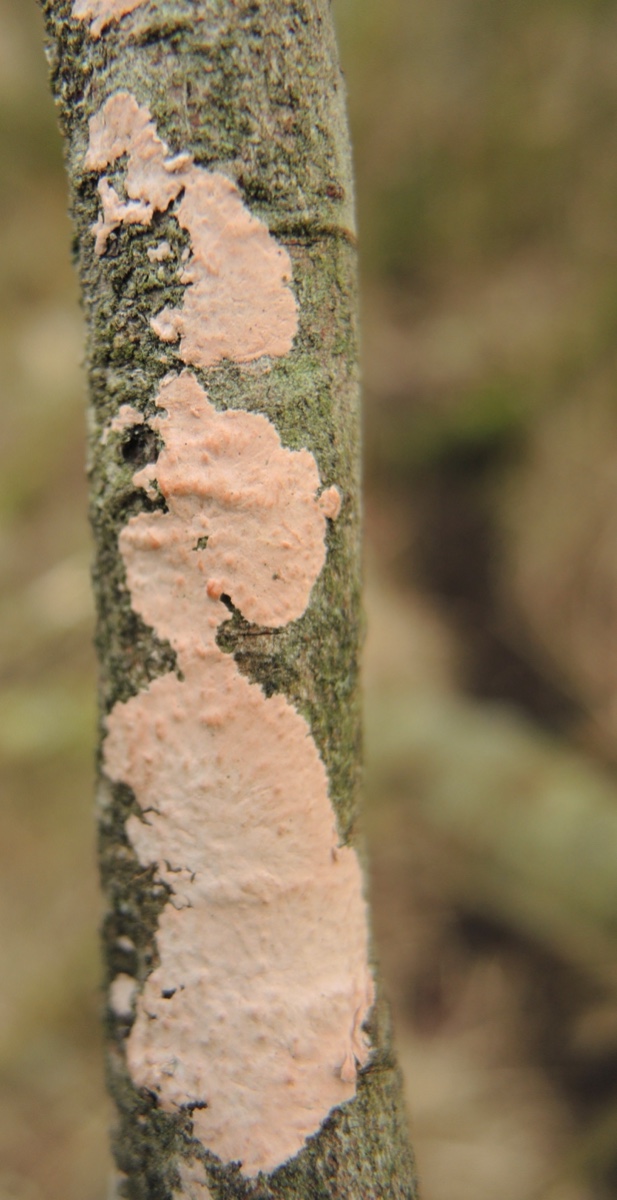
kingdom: Fungi
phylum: Basidiomycota
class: Agaricomycetes
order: Corticiales
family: Corticiaceae
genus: Corticium
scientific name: Corticium roseum
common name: rosa barkskind
